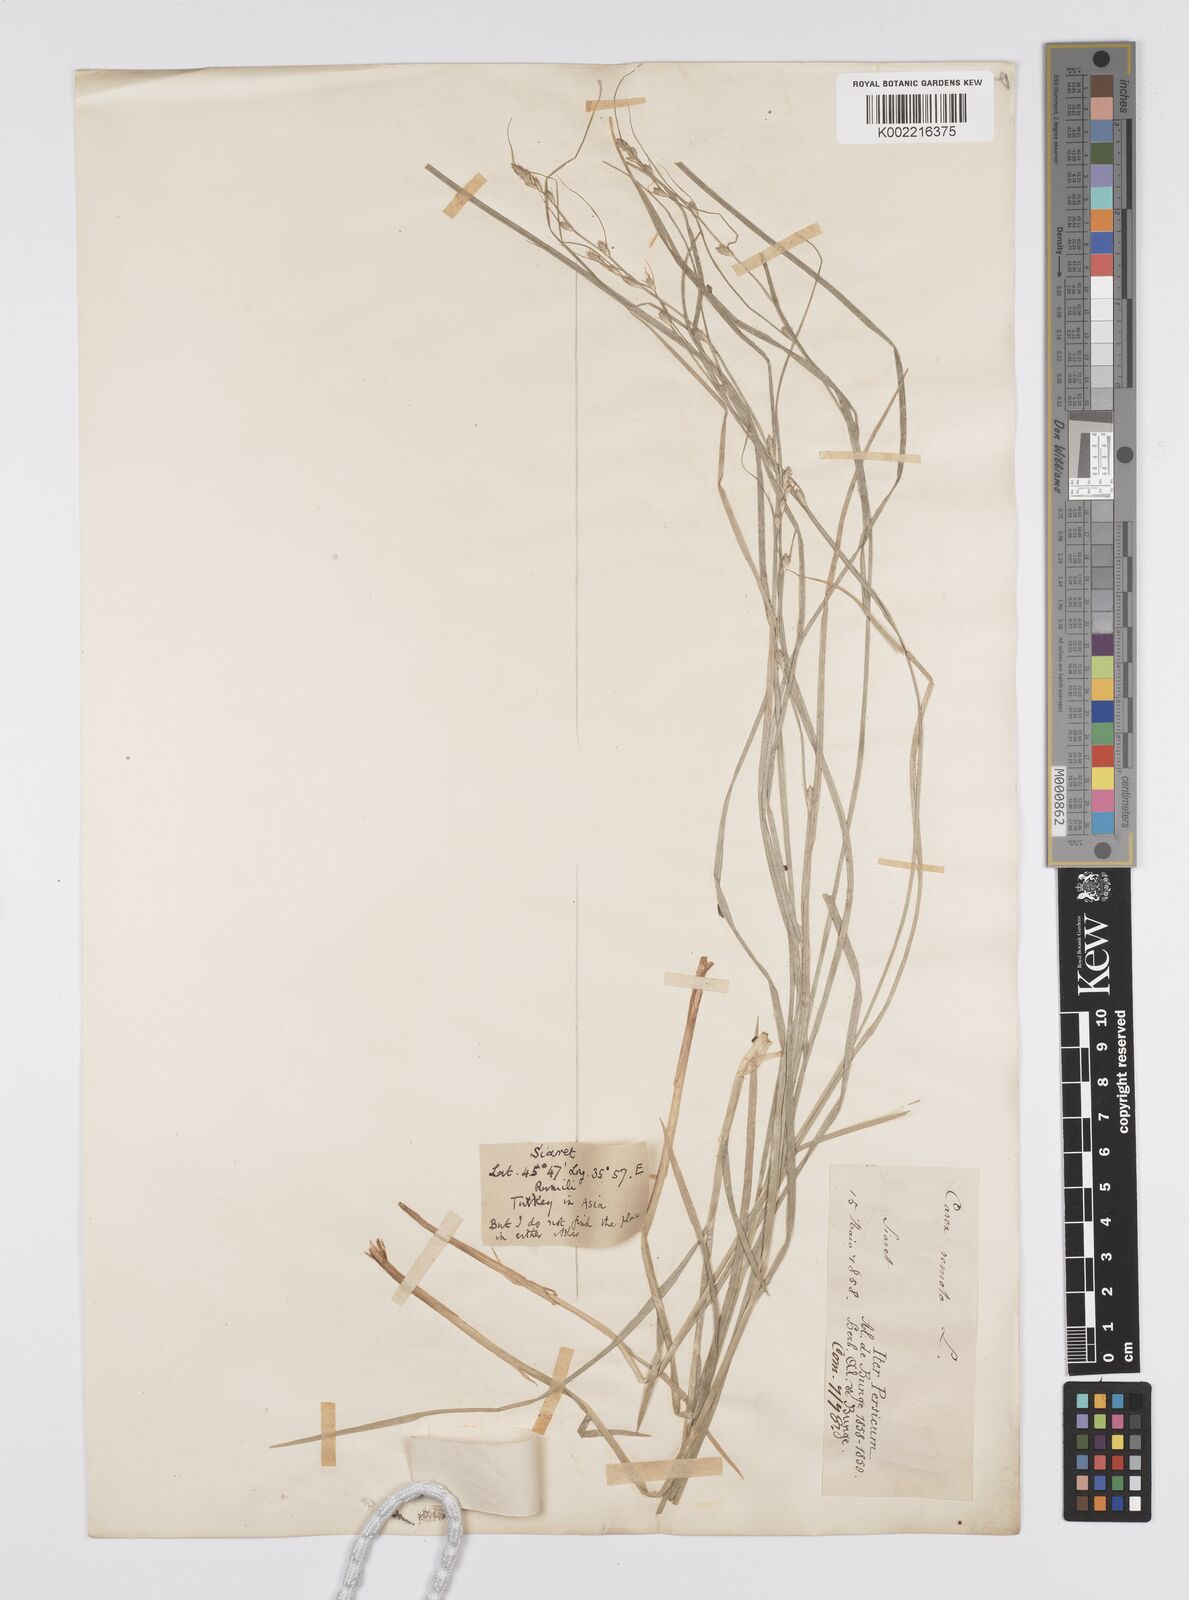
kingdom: Plantae
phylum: Tracheophyta
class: Liliopsida
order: Poales
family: Cyperaceae
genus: Carex
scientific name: Carex remota
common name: Remote sedge
